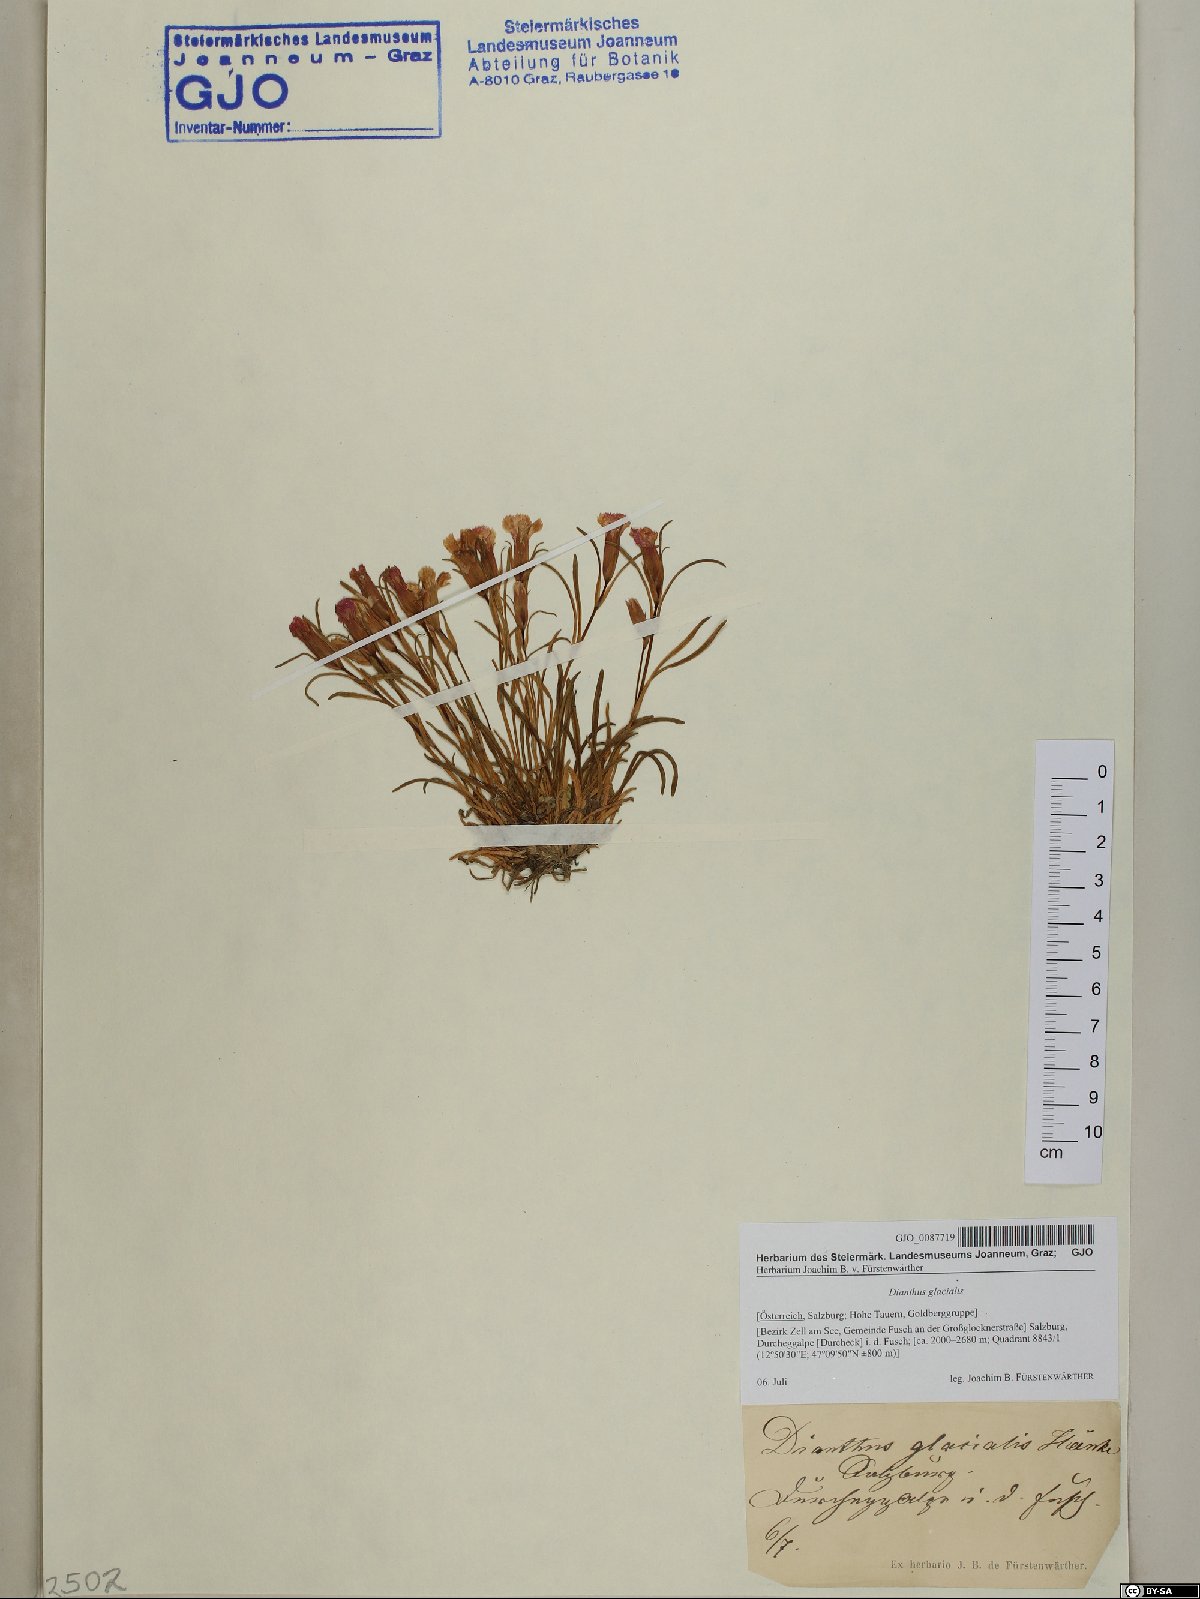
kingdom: Plantae
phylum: Tracheophyta
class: Magnoliopsida
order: Caryophyllales
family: Caryophyllaceae
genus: Dianthus
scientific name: Dianthus glacialis
